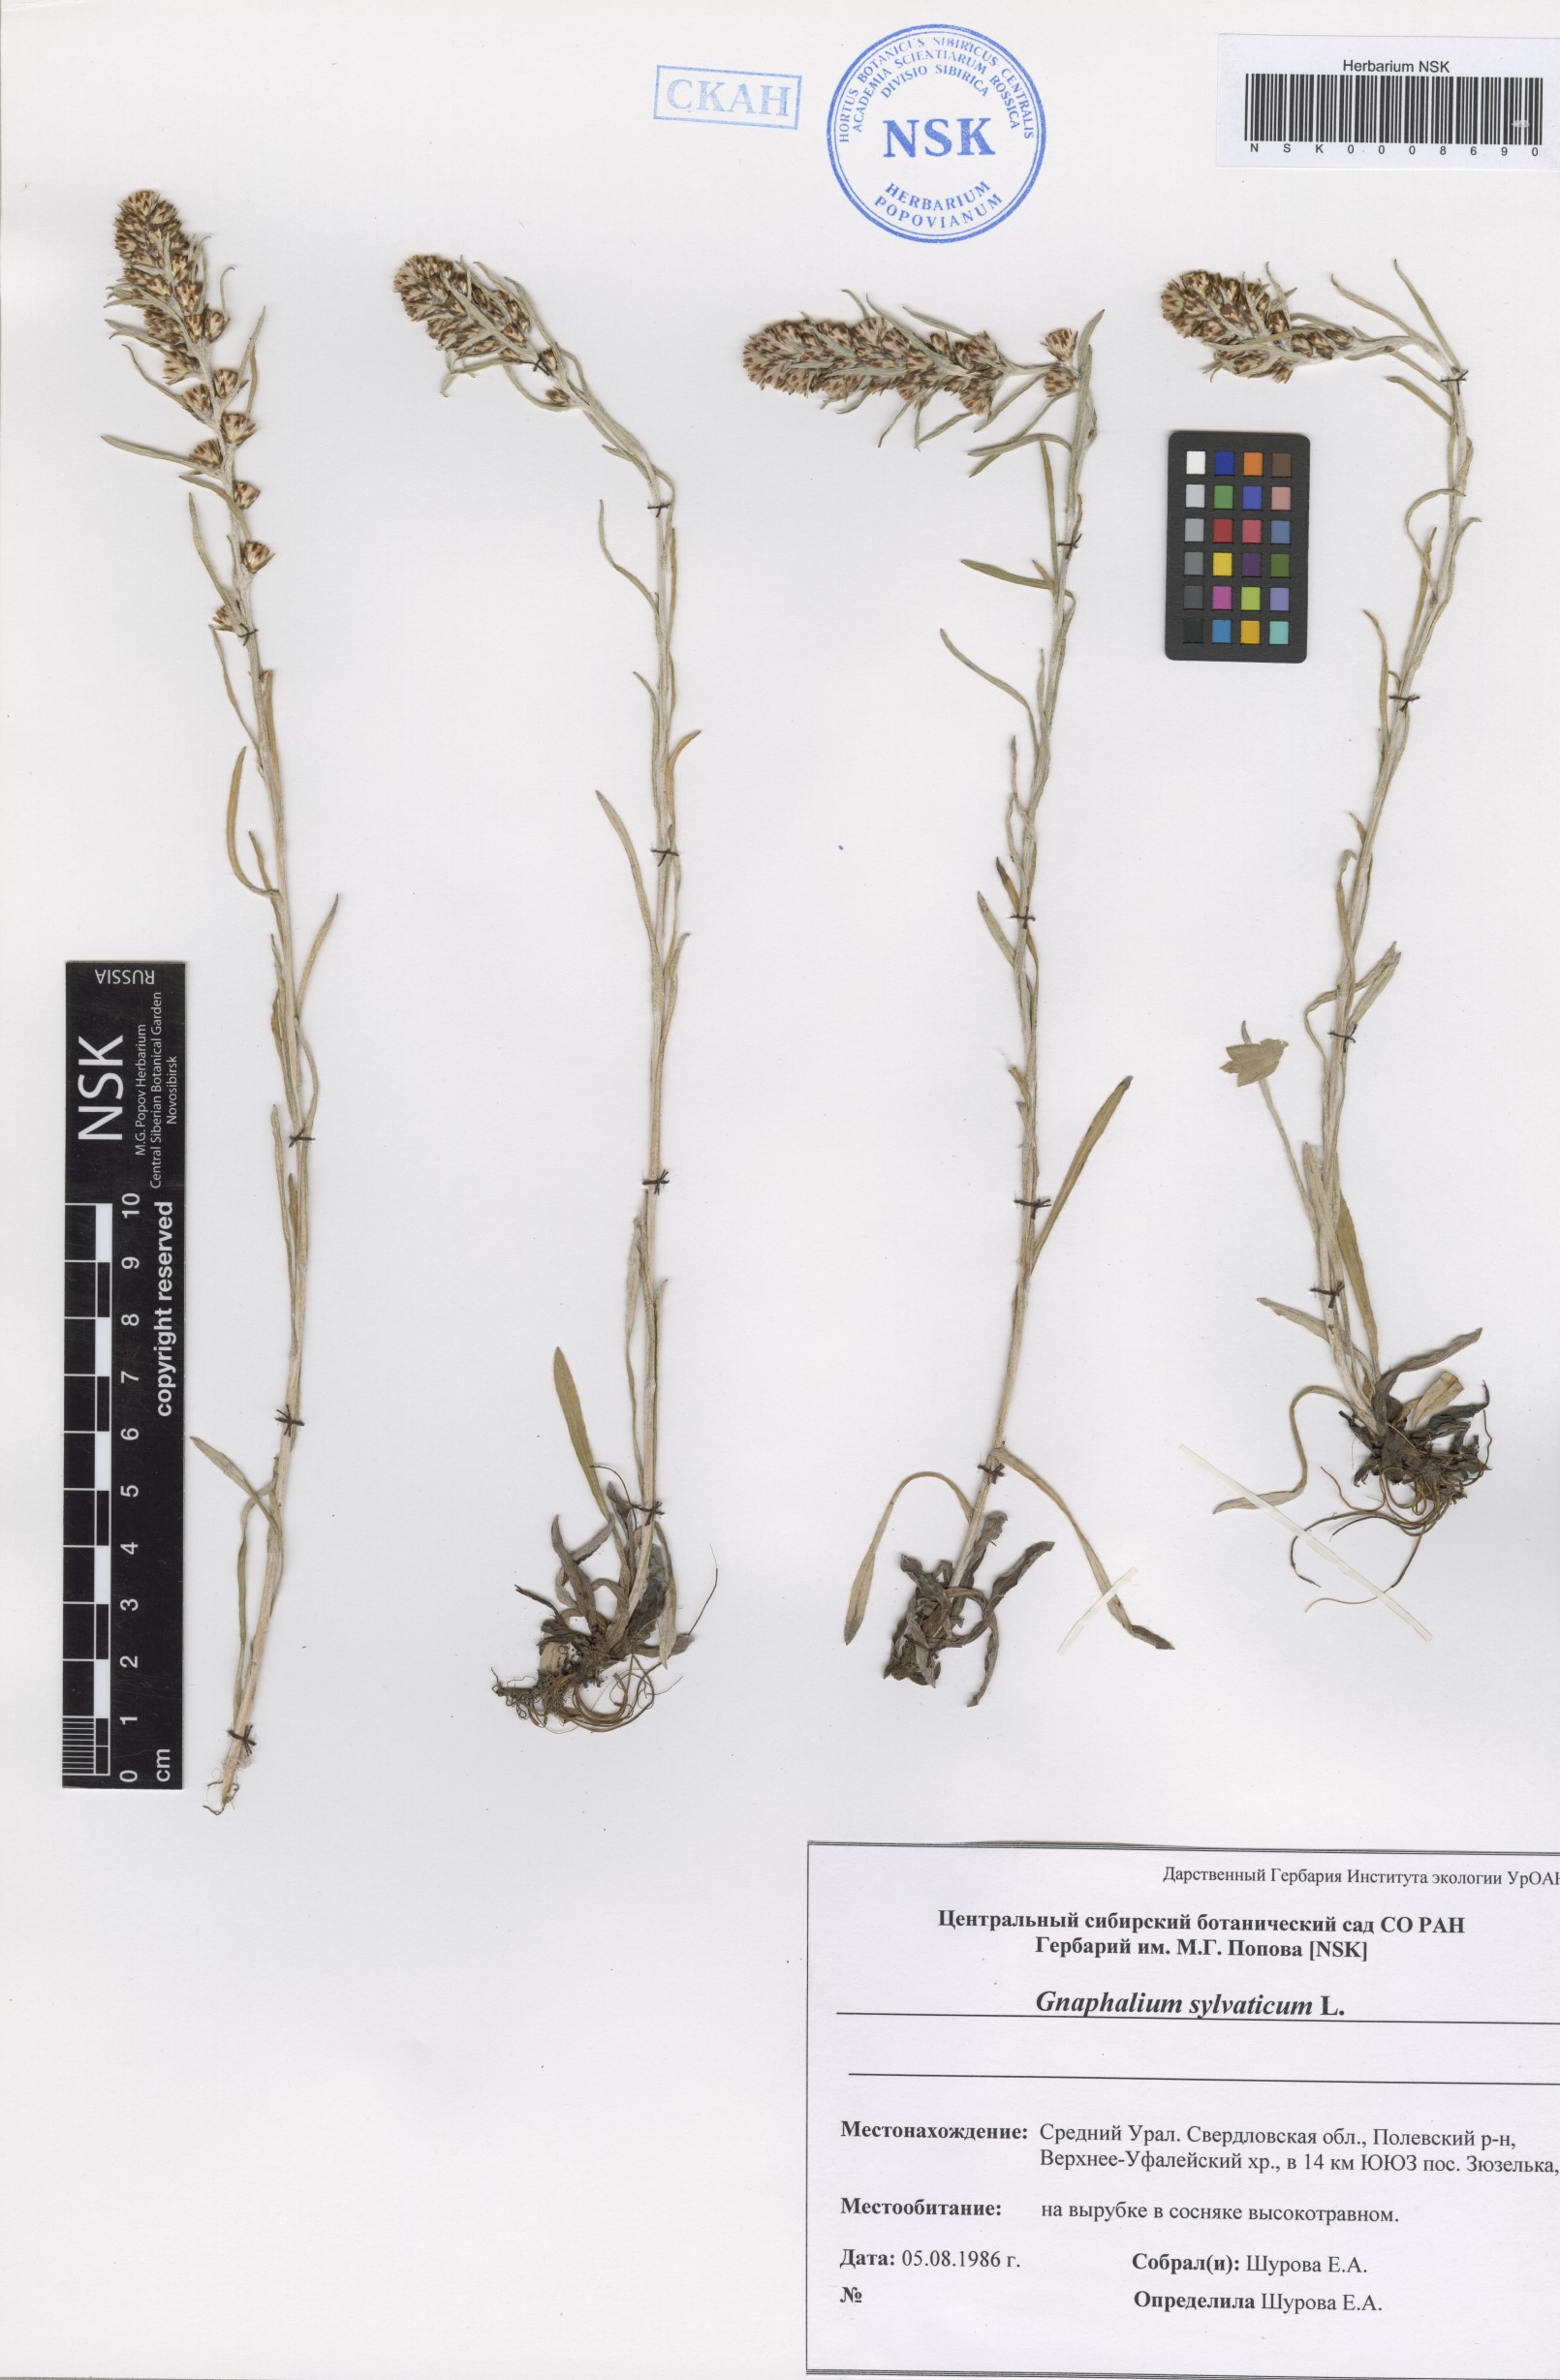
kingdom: Plantae
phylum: Tracheophyta
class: Magnoliopsida
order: Asterales
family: Asteraceae
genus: Omalotheca
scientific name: Omalotheca sylvatica
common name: Heath cudweed
